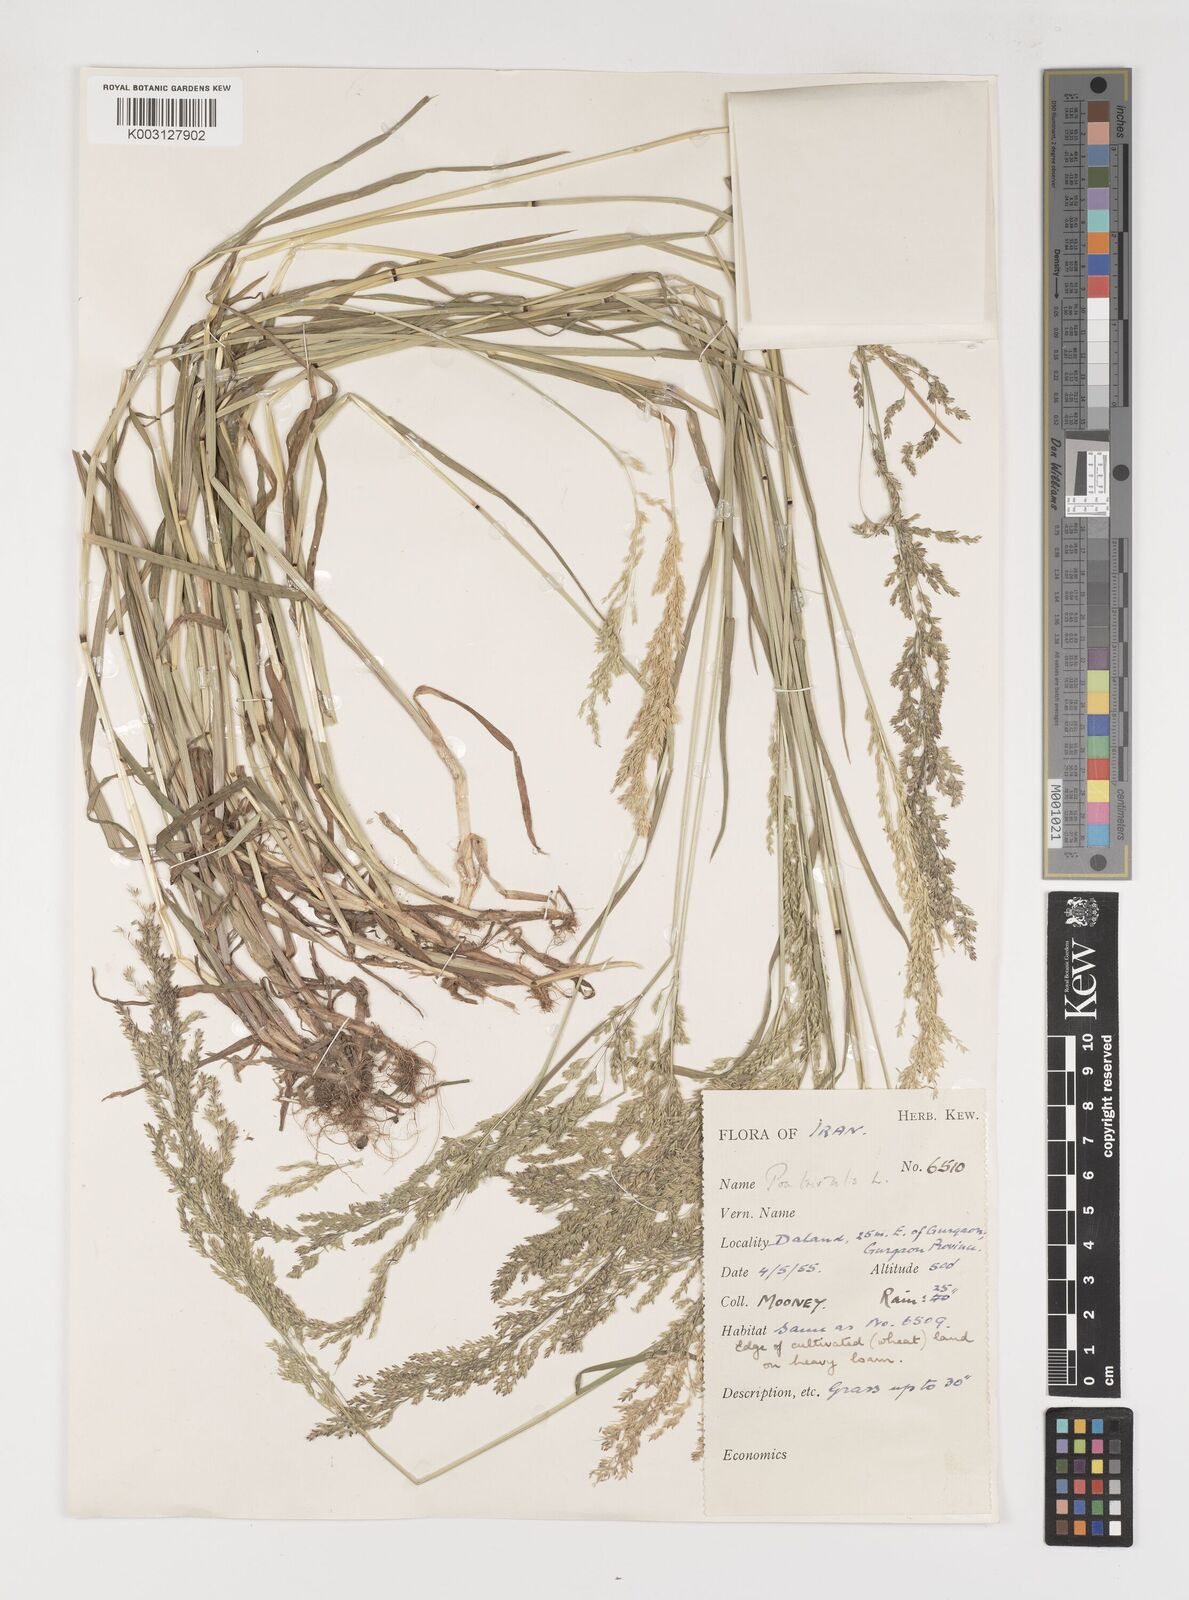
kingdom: Plantae
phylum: Tracheophyta
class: Liliopsida
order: Poales
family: Poaceae
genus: Poa
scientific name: Poa trivialis
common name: Rough bluegrass
